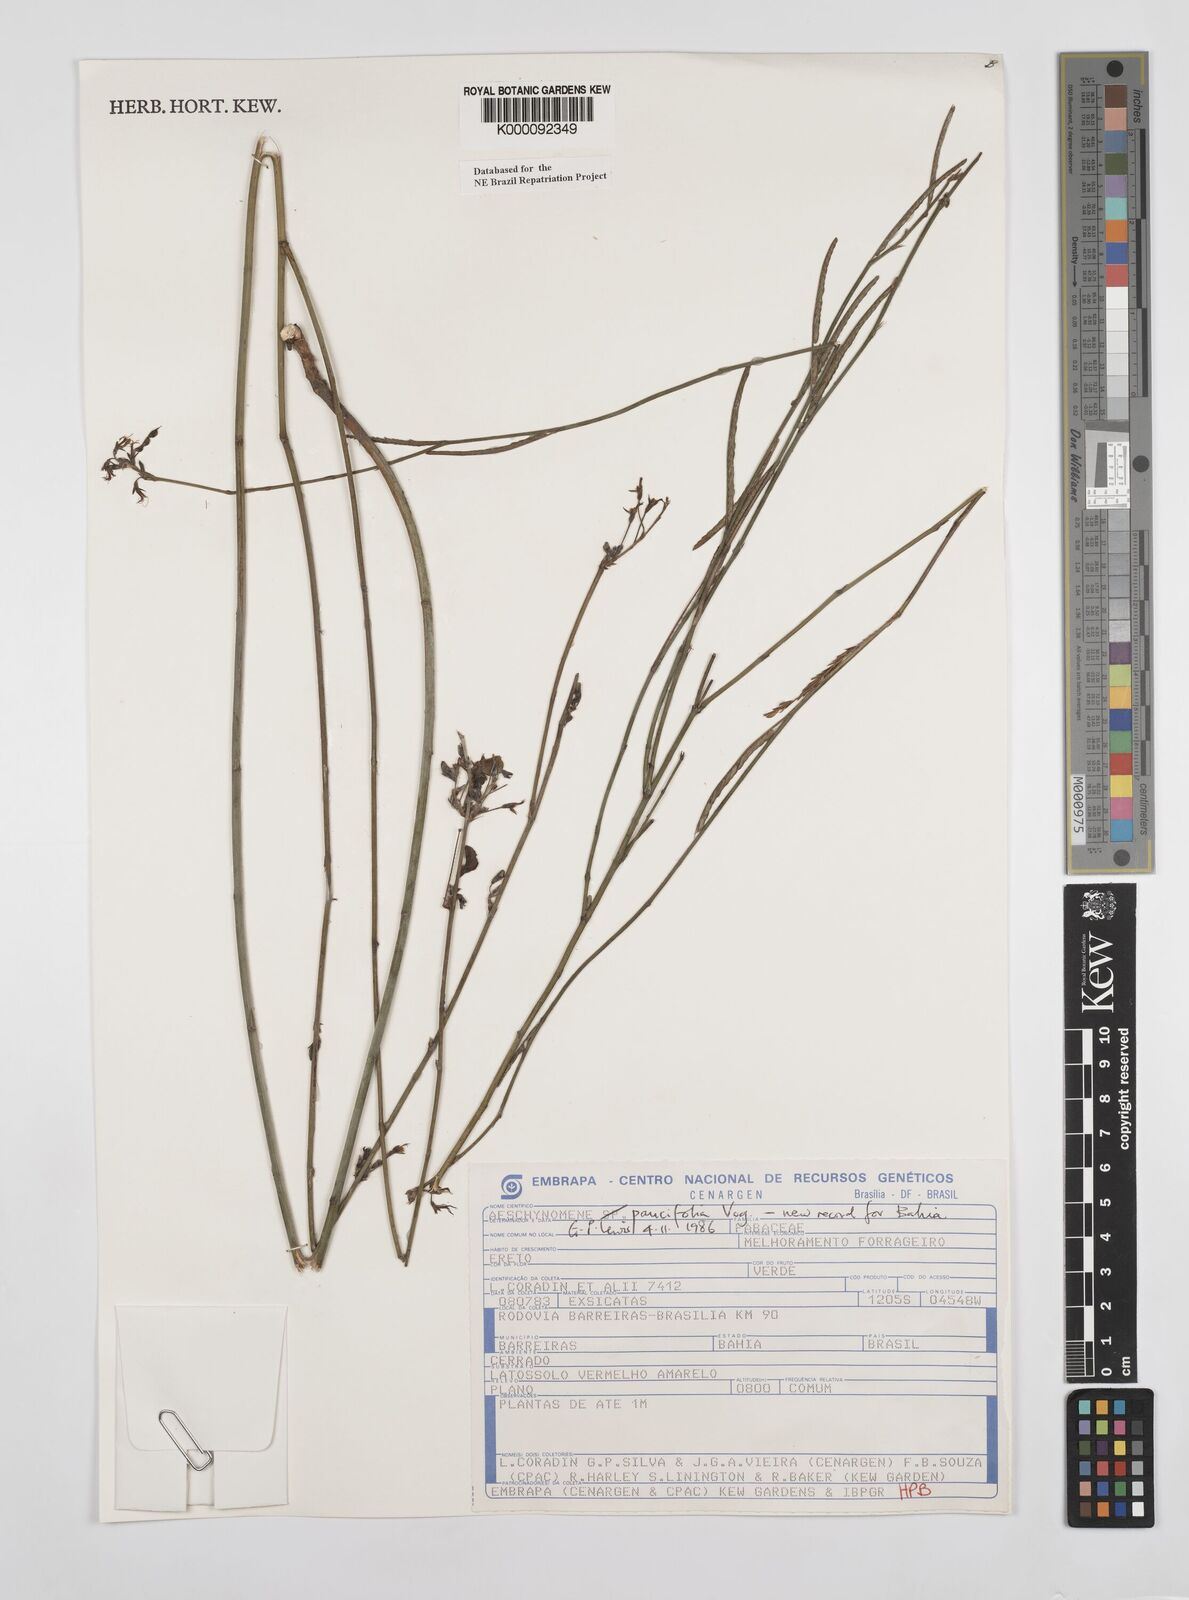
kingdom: Plantae
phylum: Tracheophyta
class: Magnoliopsida
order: Fabales
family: Fabaceae
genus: Ctenodon
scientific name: Ctenodon paucifolius
